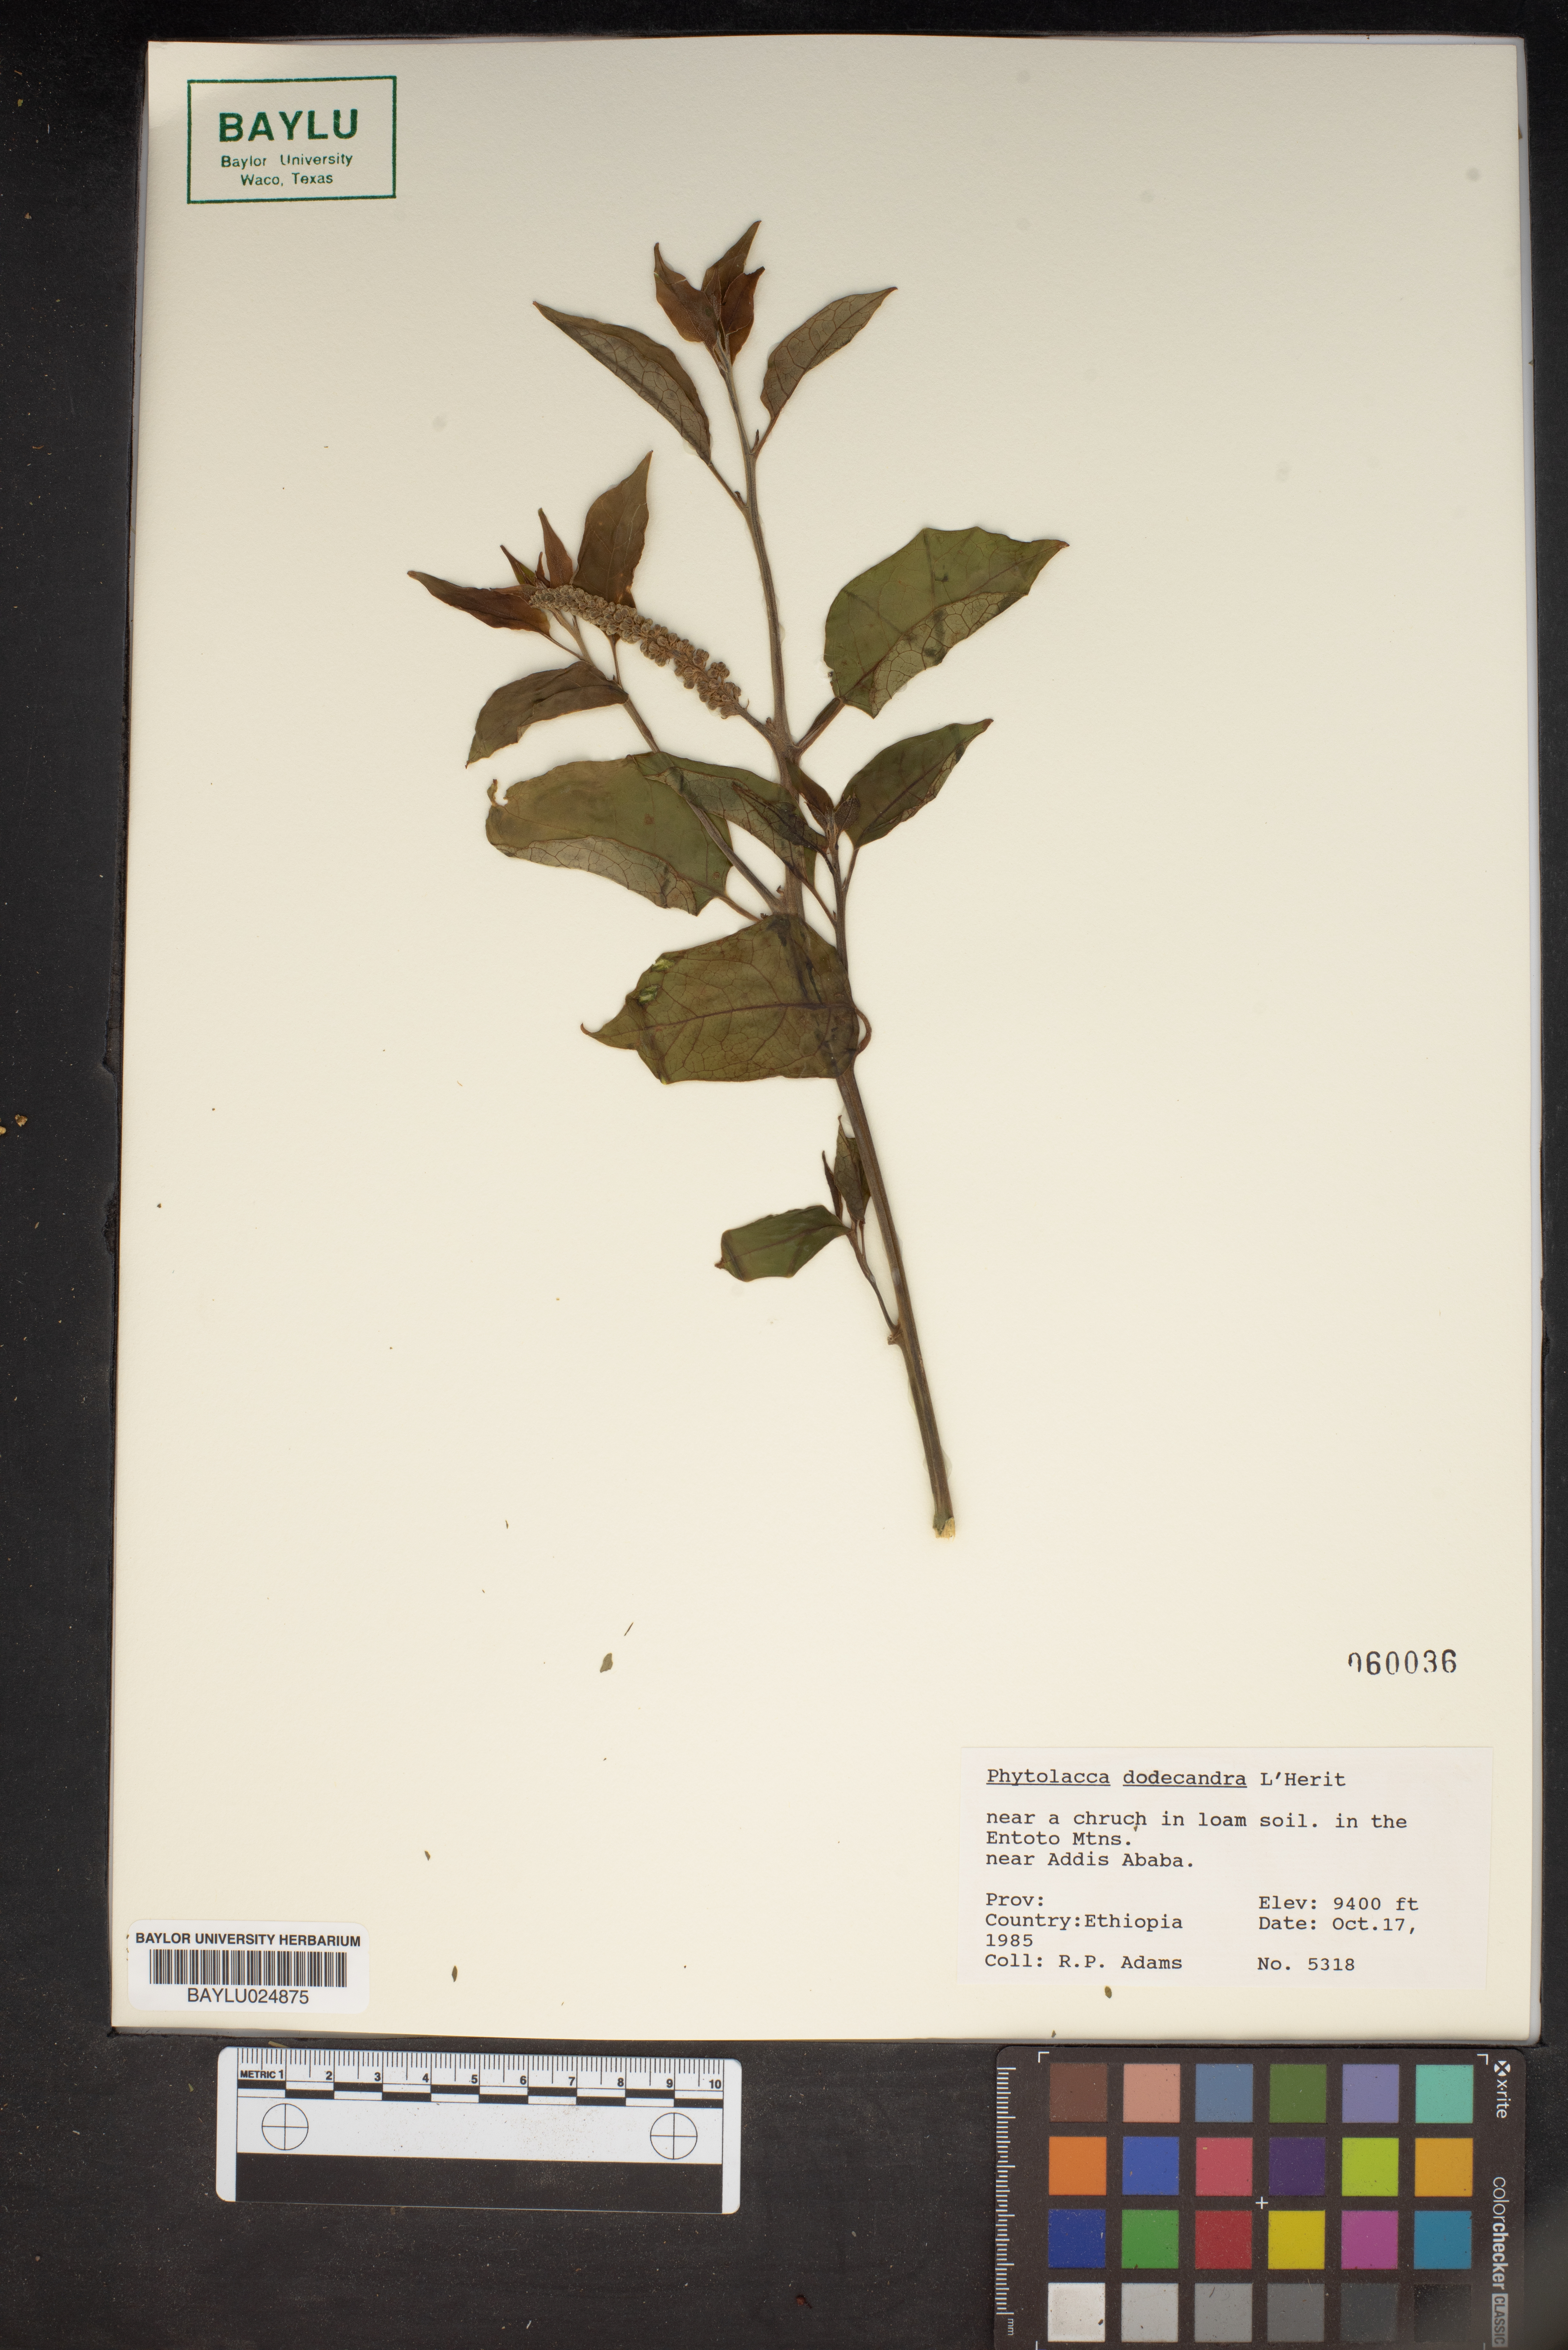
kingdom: Plantae
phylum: Tracheophyta
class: Magnoliopsida
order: Caryophyllales
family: Phytolaccaceae
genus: Phytolacca
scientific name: Phytolacca dodecandra
